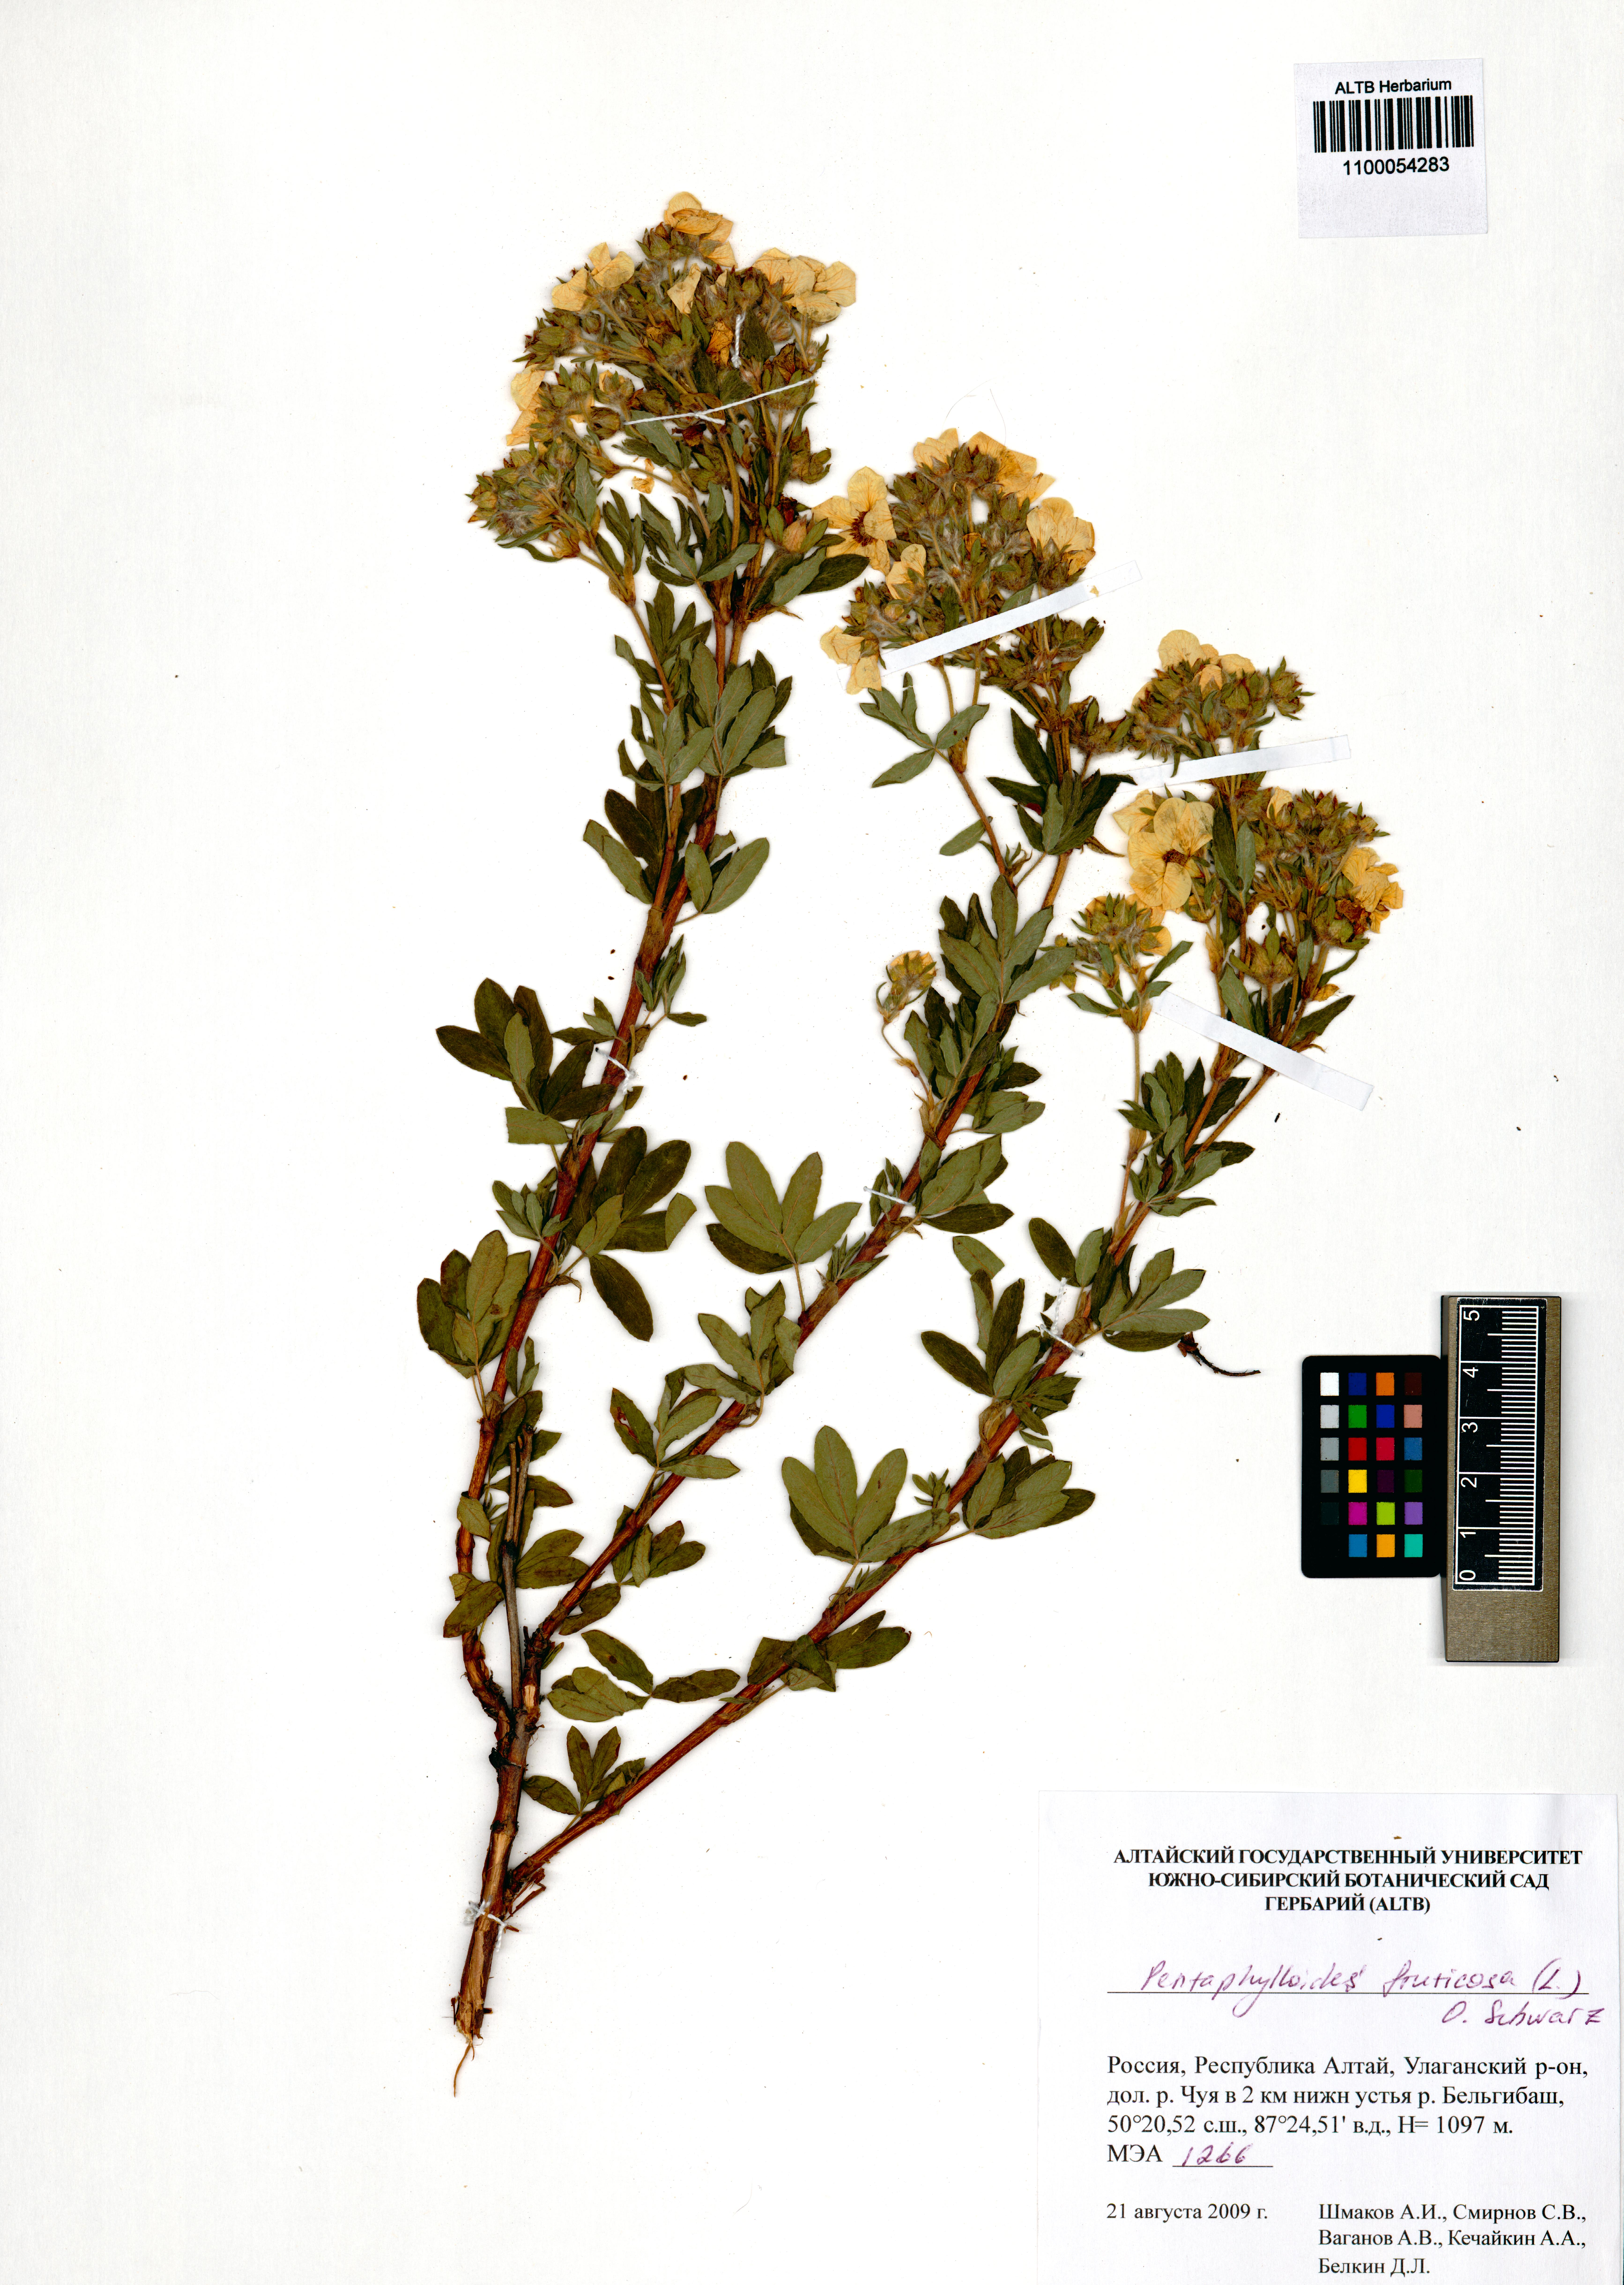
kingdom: Plantae
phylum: Tracheophyta
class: Magnoliopsida
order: Rosales
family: Rosaceae
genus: Dasiphora
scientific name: Dasiphora fruticosa
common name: Shrubby cinquefoil
